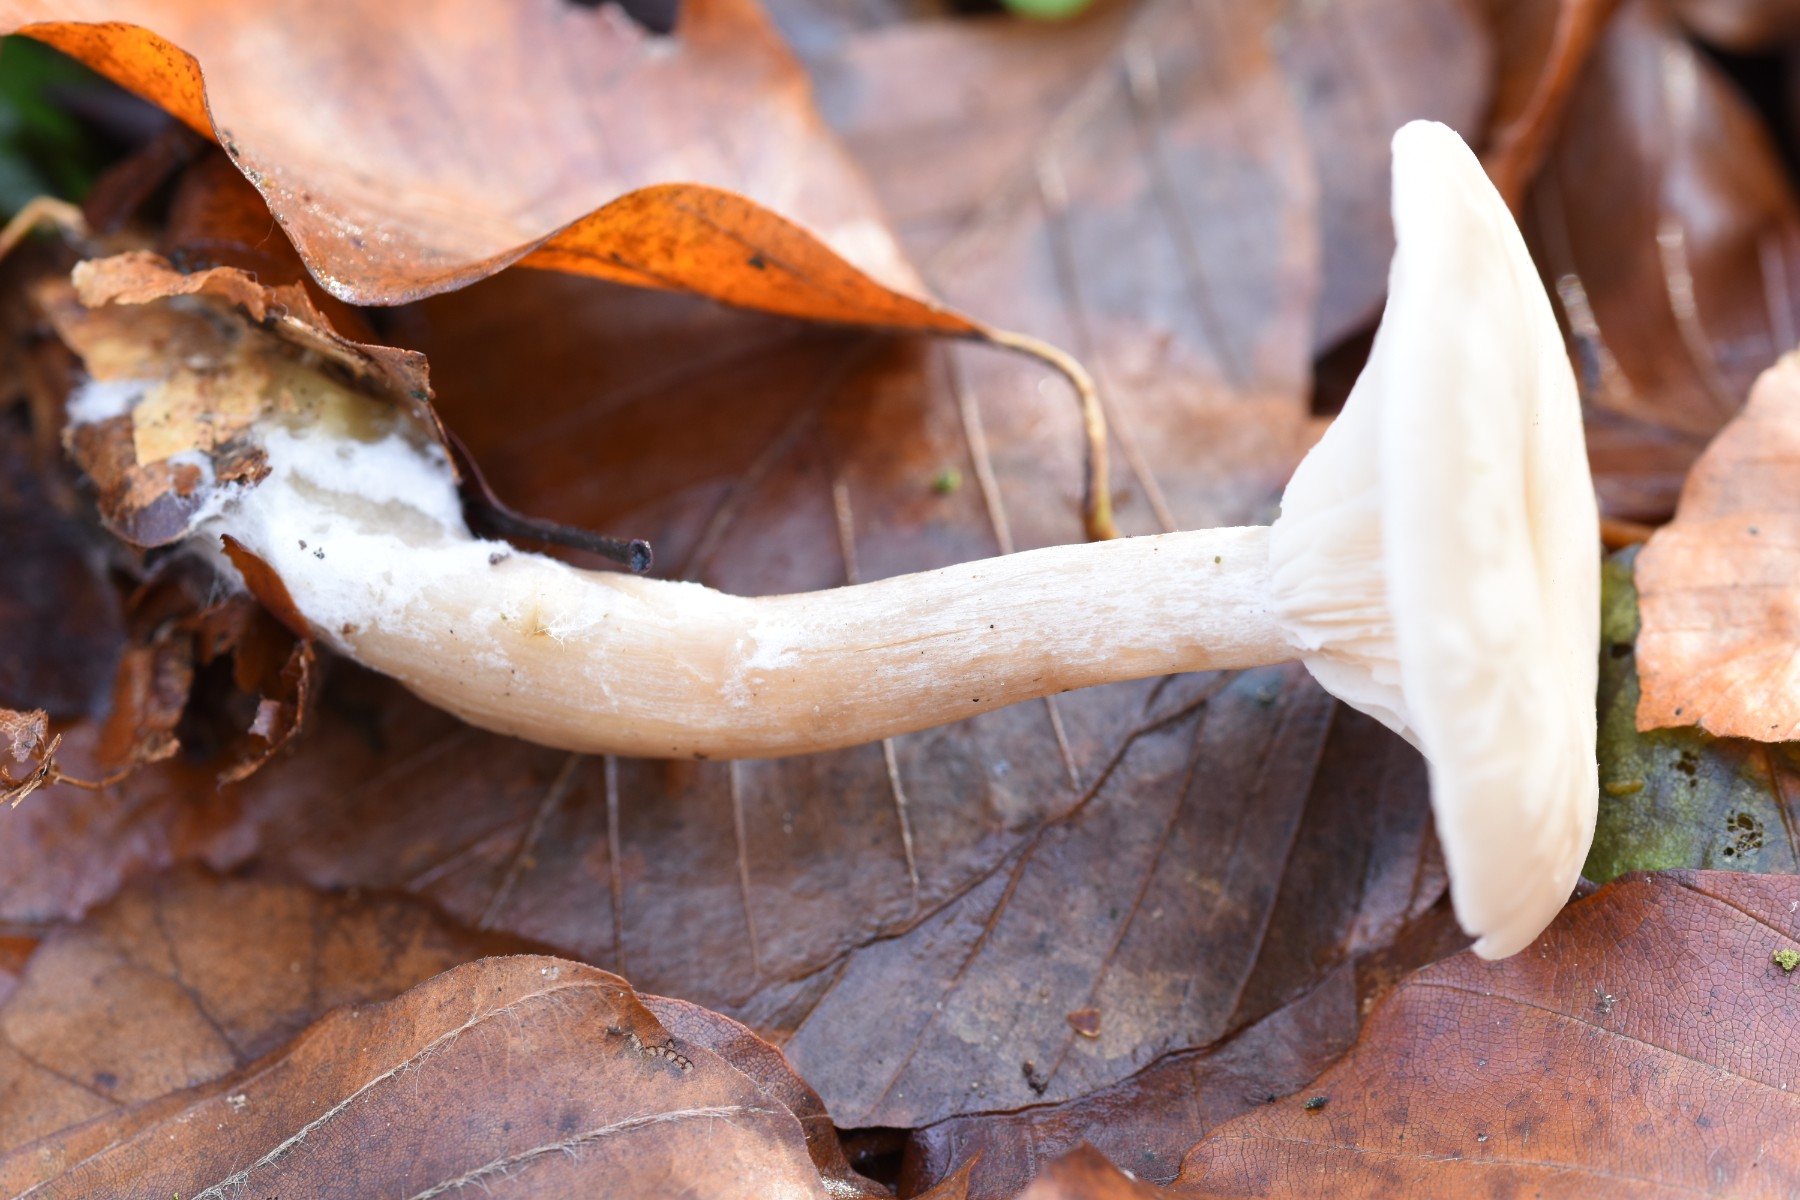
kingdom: Fungi
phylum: Basidiomycota
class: Agaricomycetes
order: Agaricales
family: Omphalotaceae
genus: Rhodocollybia
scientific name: Rhodocollybia asema
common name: horngrå fladhat
